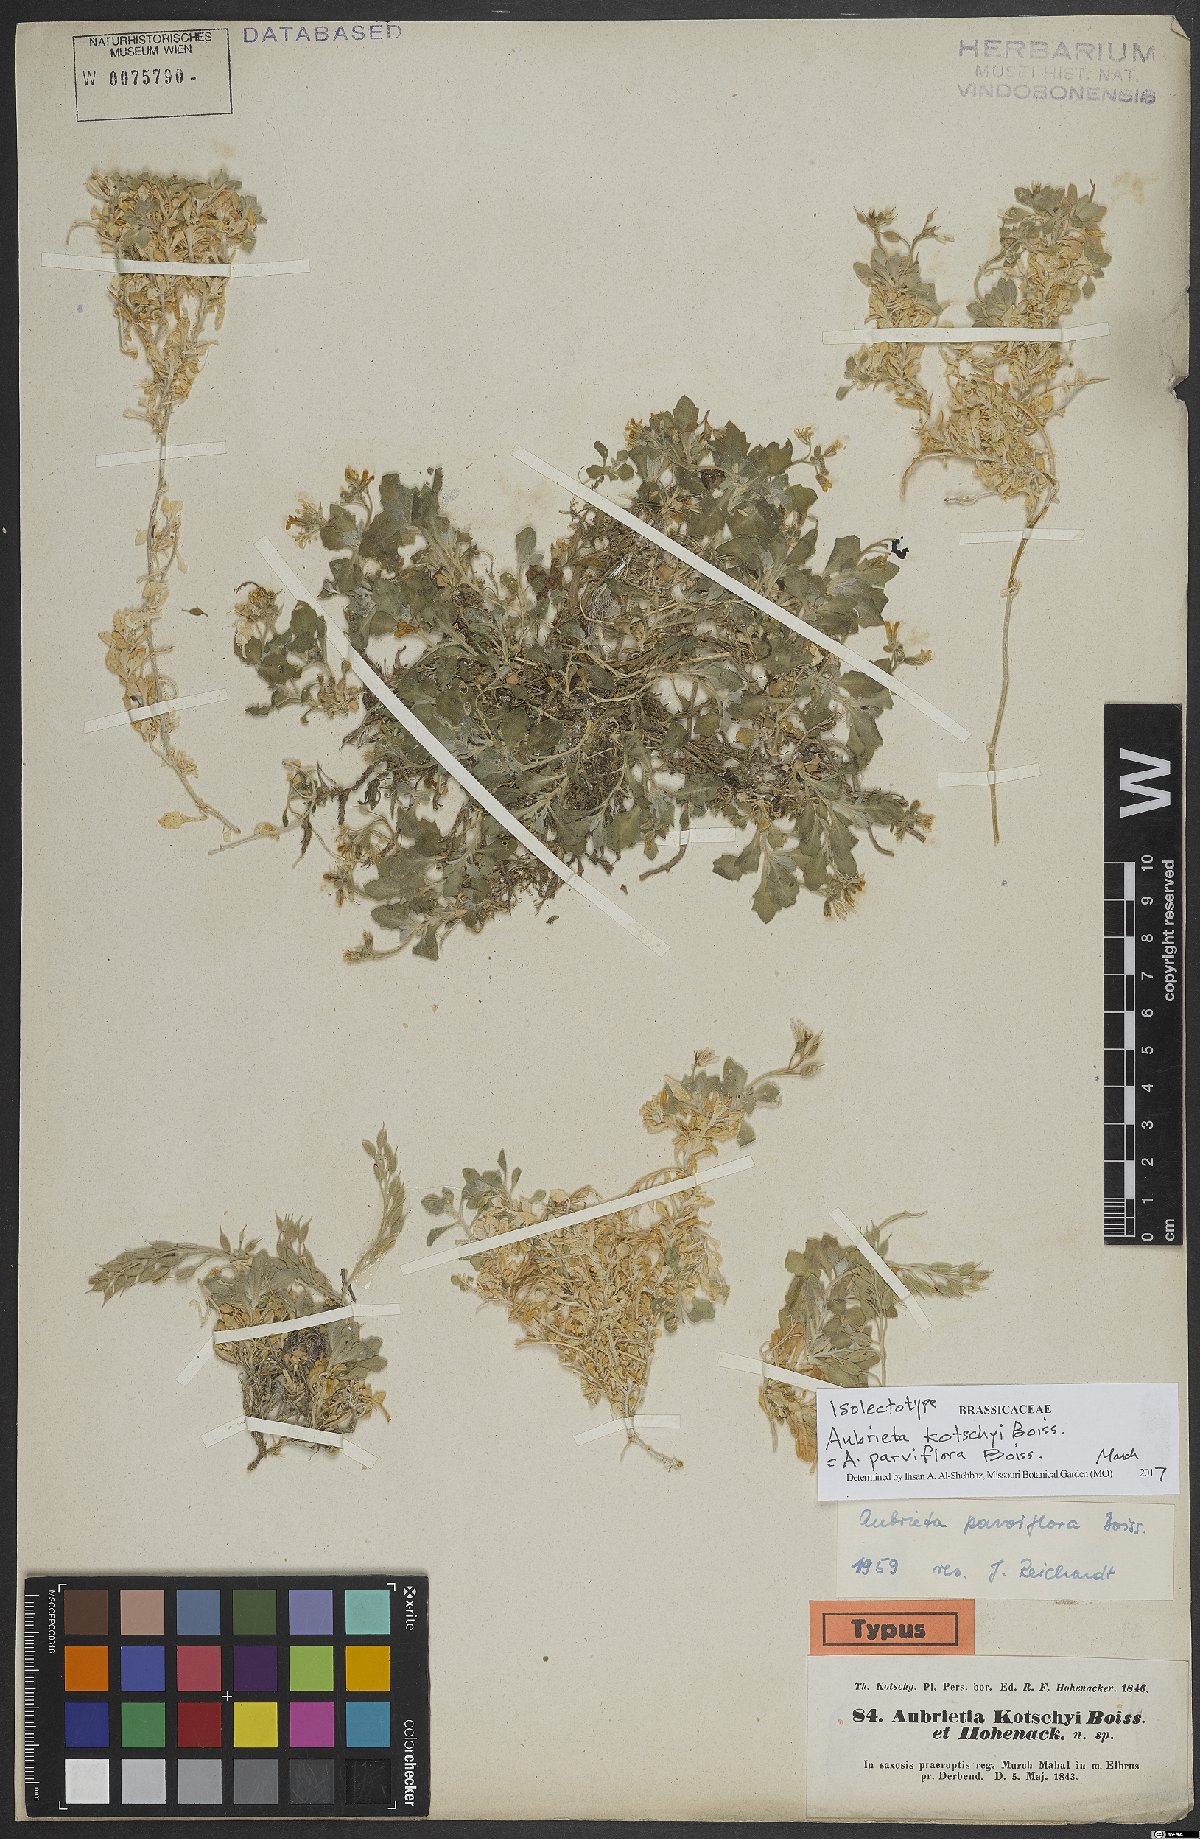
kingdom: Plantae
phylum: Tracheophyta
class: Magnoliopsida
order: Brassicales
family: Brassicaceae
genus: Aubrieta
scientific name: Aubrieta parviflora
